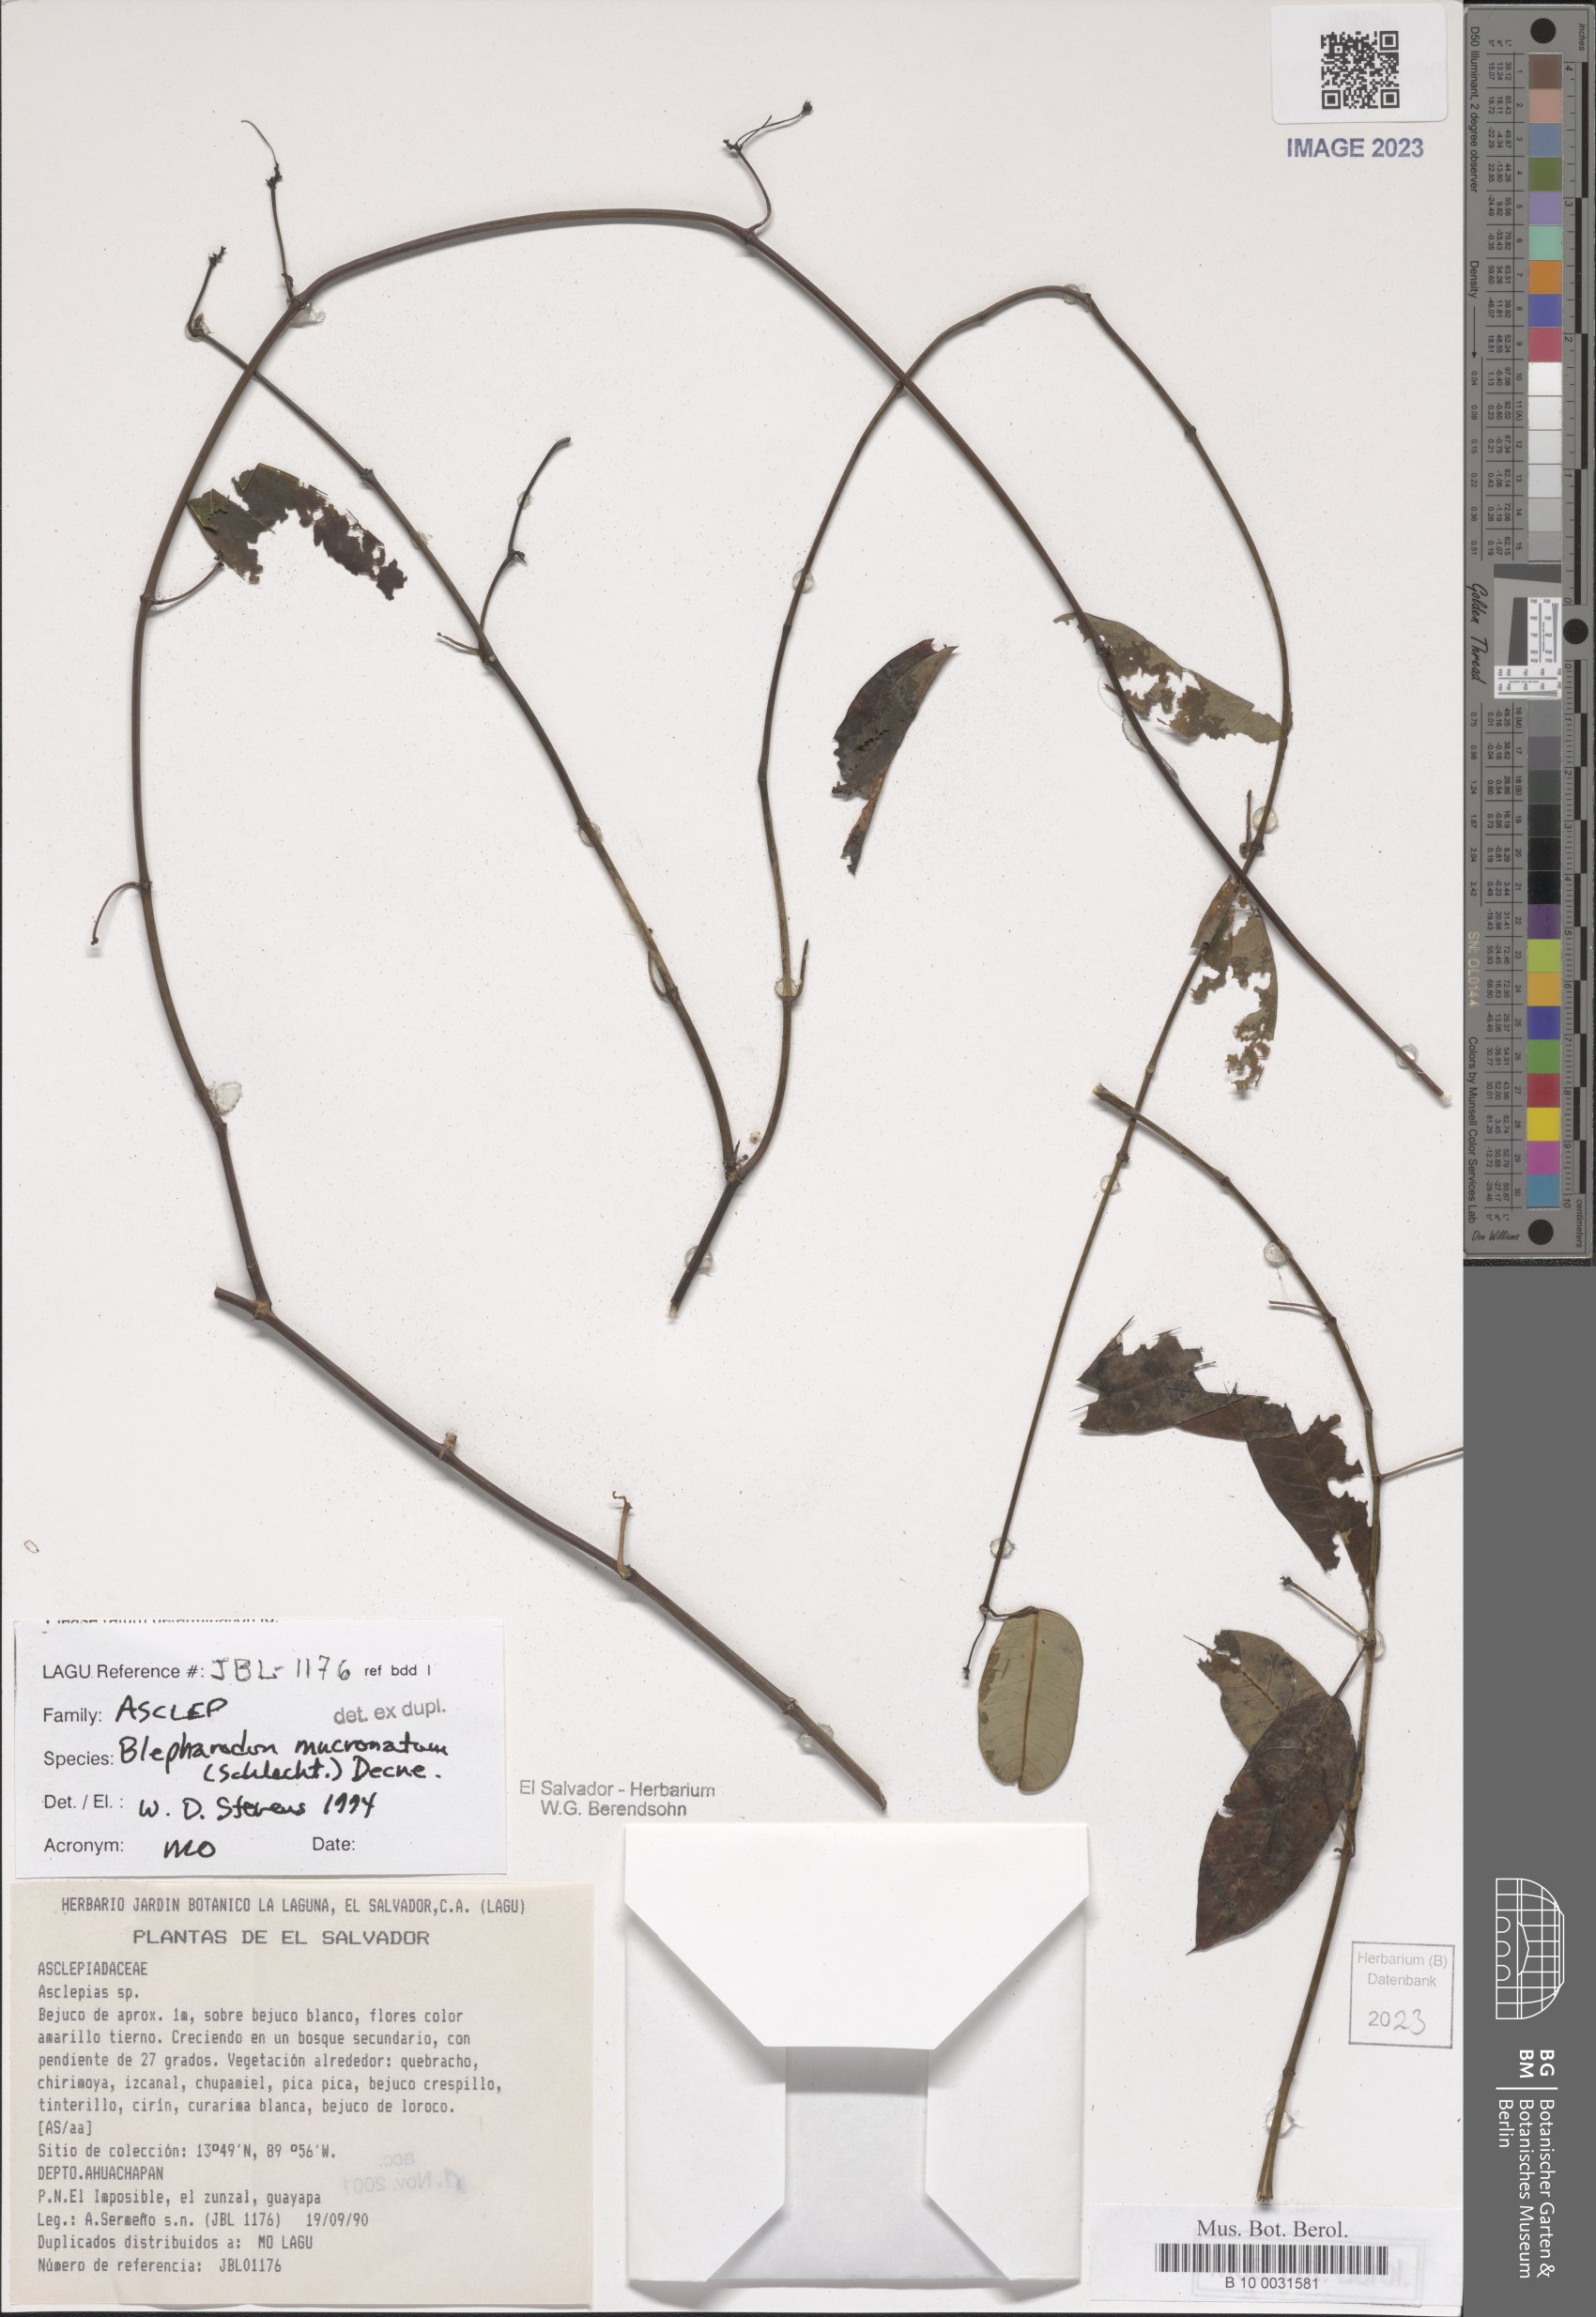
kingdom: Plantae
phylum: Tracheophyta
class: Magnoliopsida
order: Gentianales
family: Apocynaceae
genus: Vailia
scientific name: Vailia anomala
